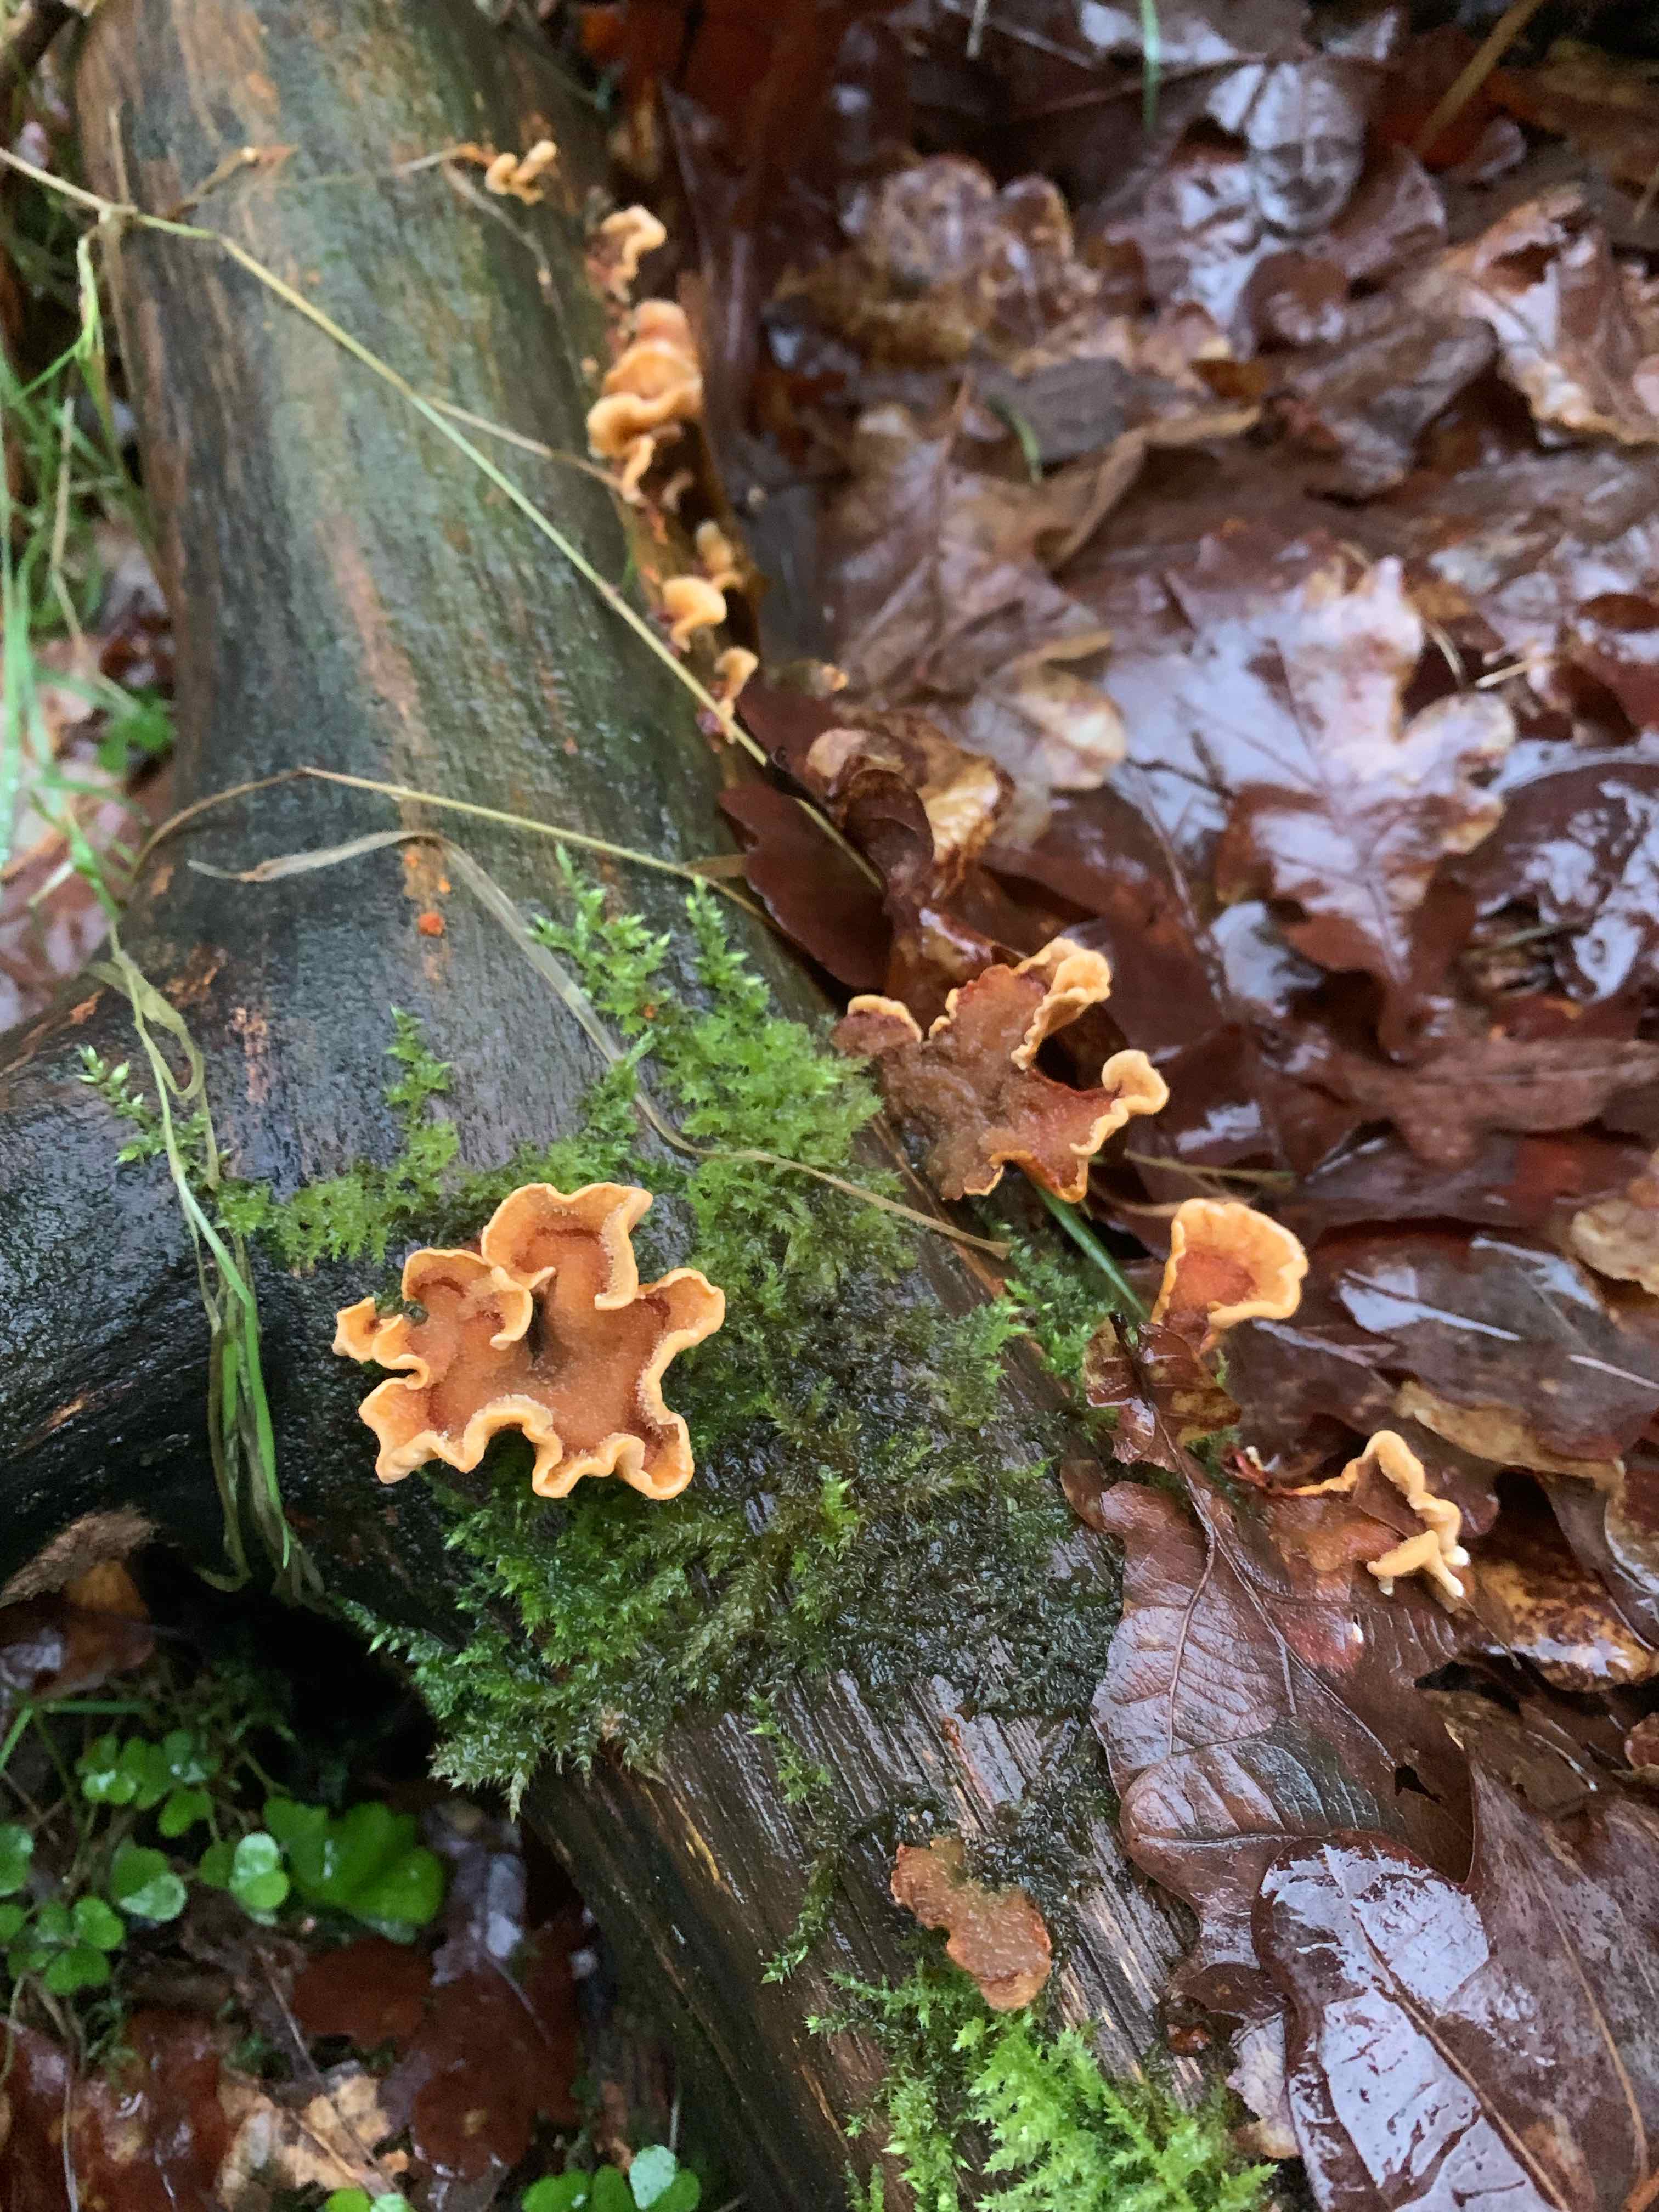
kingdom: Fungi
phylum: Basidiomycota
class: Agaricomycetes
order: Russulales
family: Stereaceae
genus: Stereum
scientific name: Stereum hirsutum
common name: håret lædersvamp
